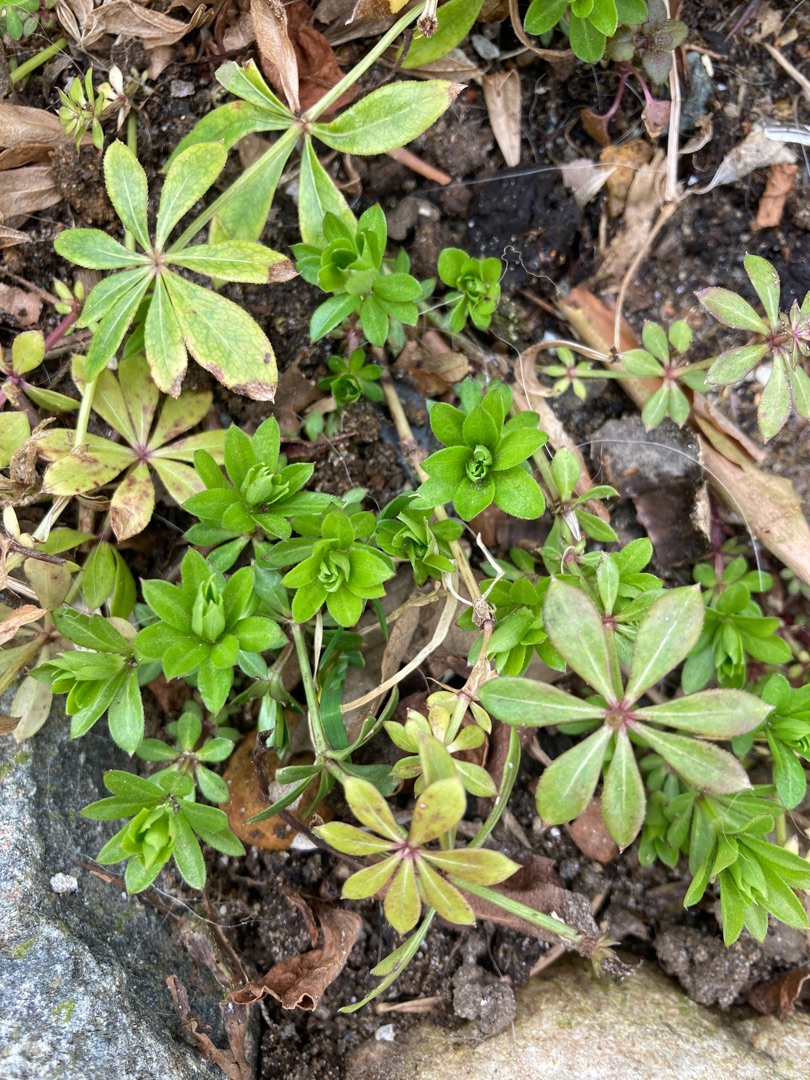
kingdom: Plantae
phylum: Tracheophyta
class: Magnoliopsida
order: Gentianales
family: Rubiaceae
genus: Galium
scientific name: Galium odoratum
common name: Skovmærke
